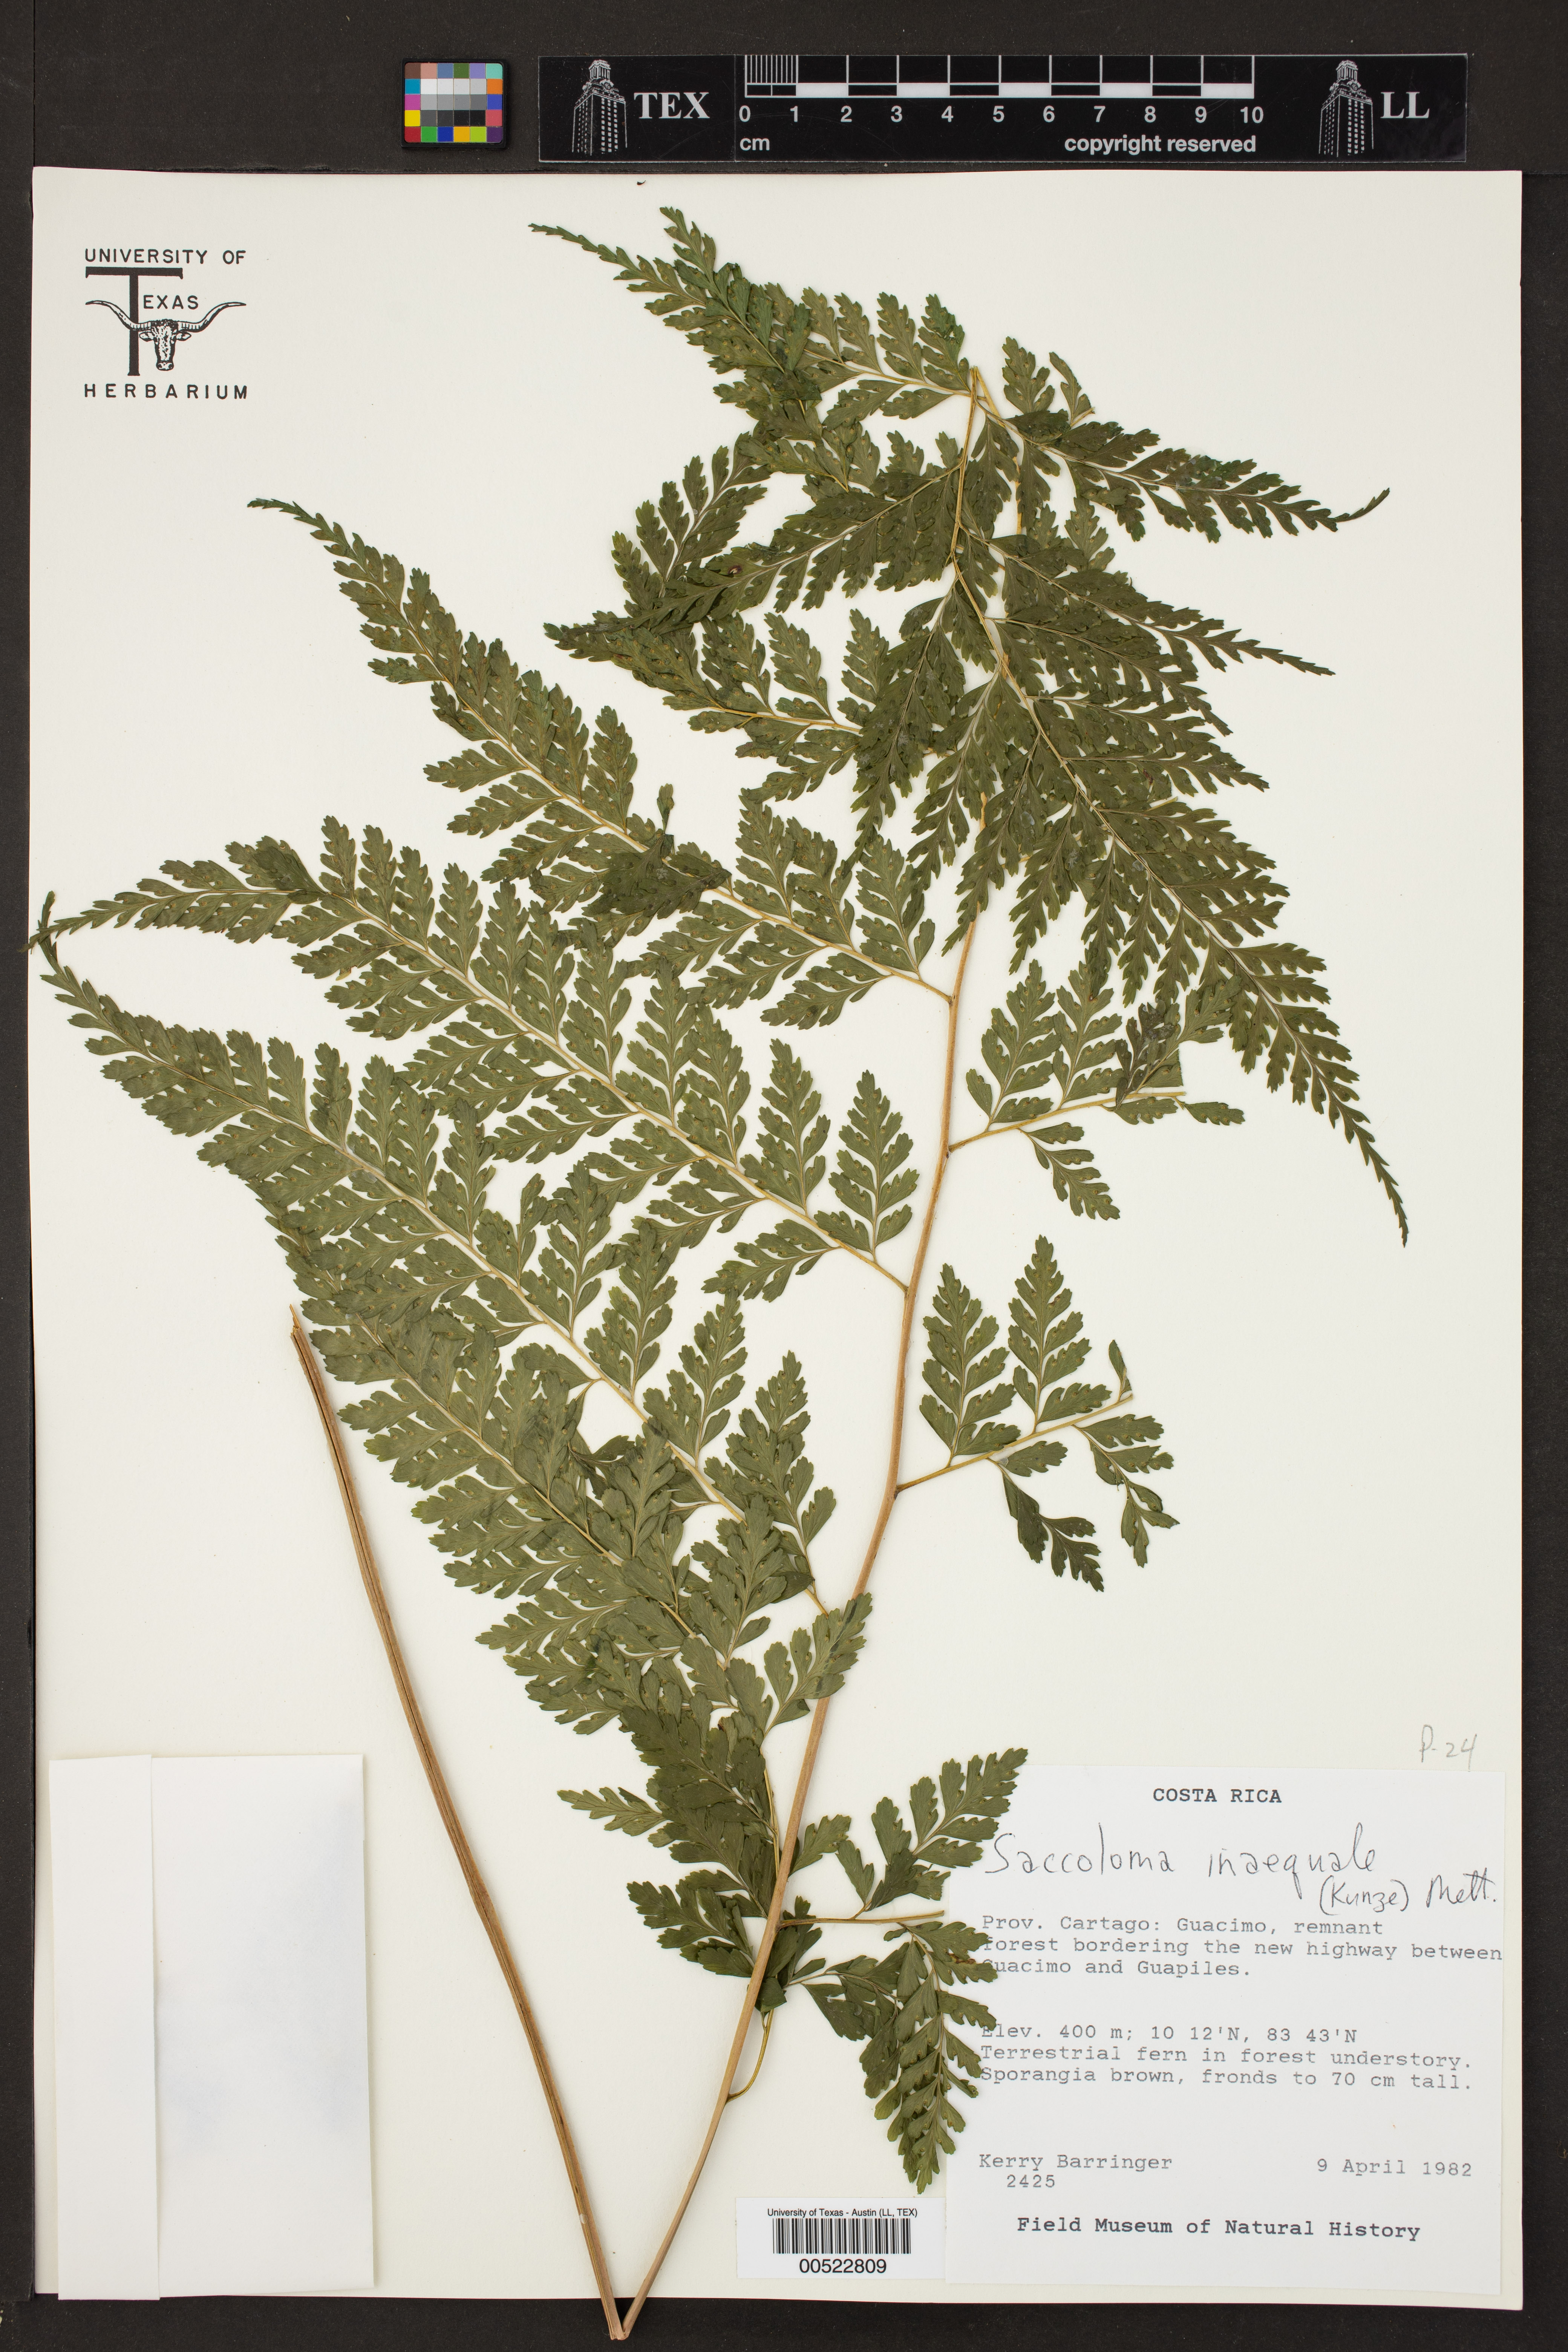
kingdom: Plantae
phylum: Tracheophyta
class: Polypodiopsida
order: Polypodiales
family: Saccolomataceae
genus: Saccoloma
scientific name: Saccoloma inaequale
